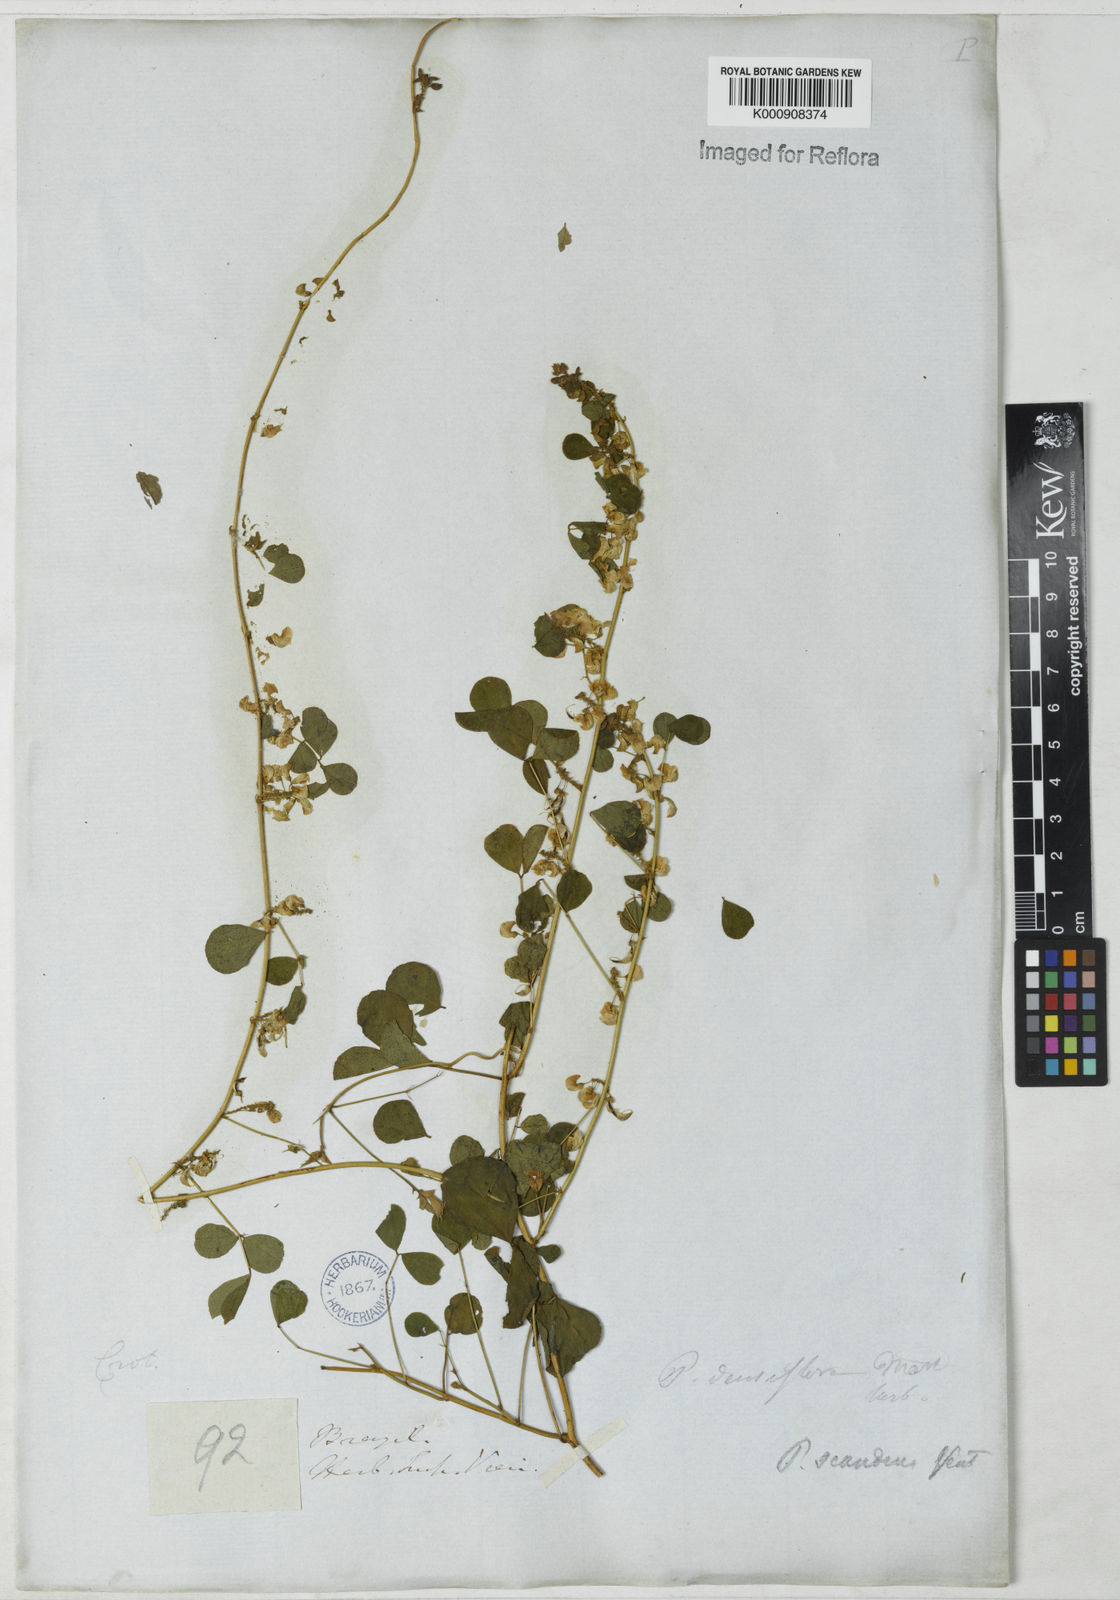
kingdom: Plantae
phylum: Tracheophyta
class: Magnoliopsida
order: Fabales
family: Fabaceae
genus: Poiretia
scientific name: Poiretia punctata
